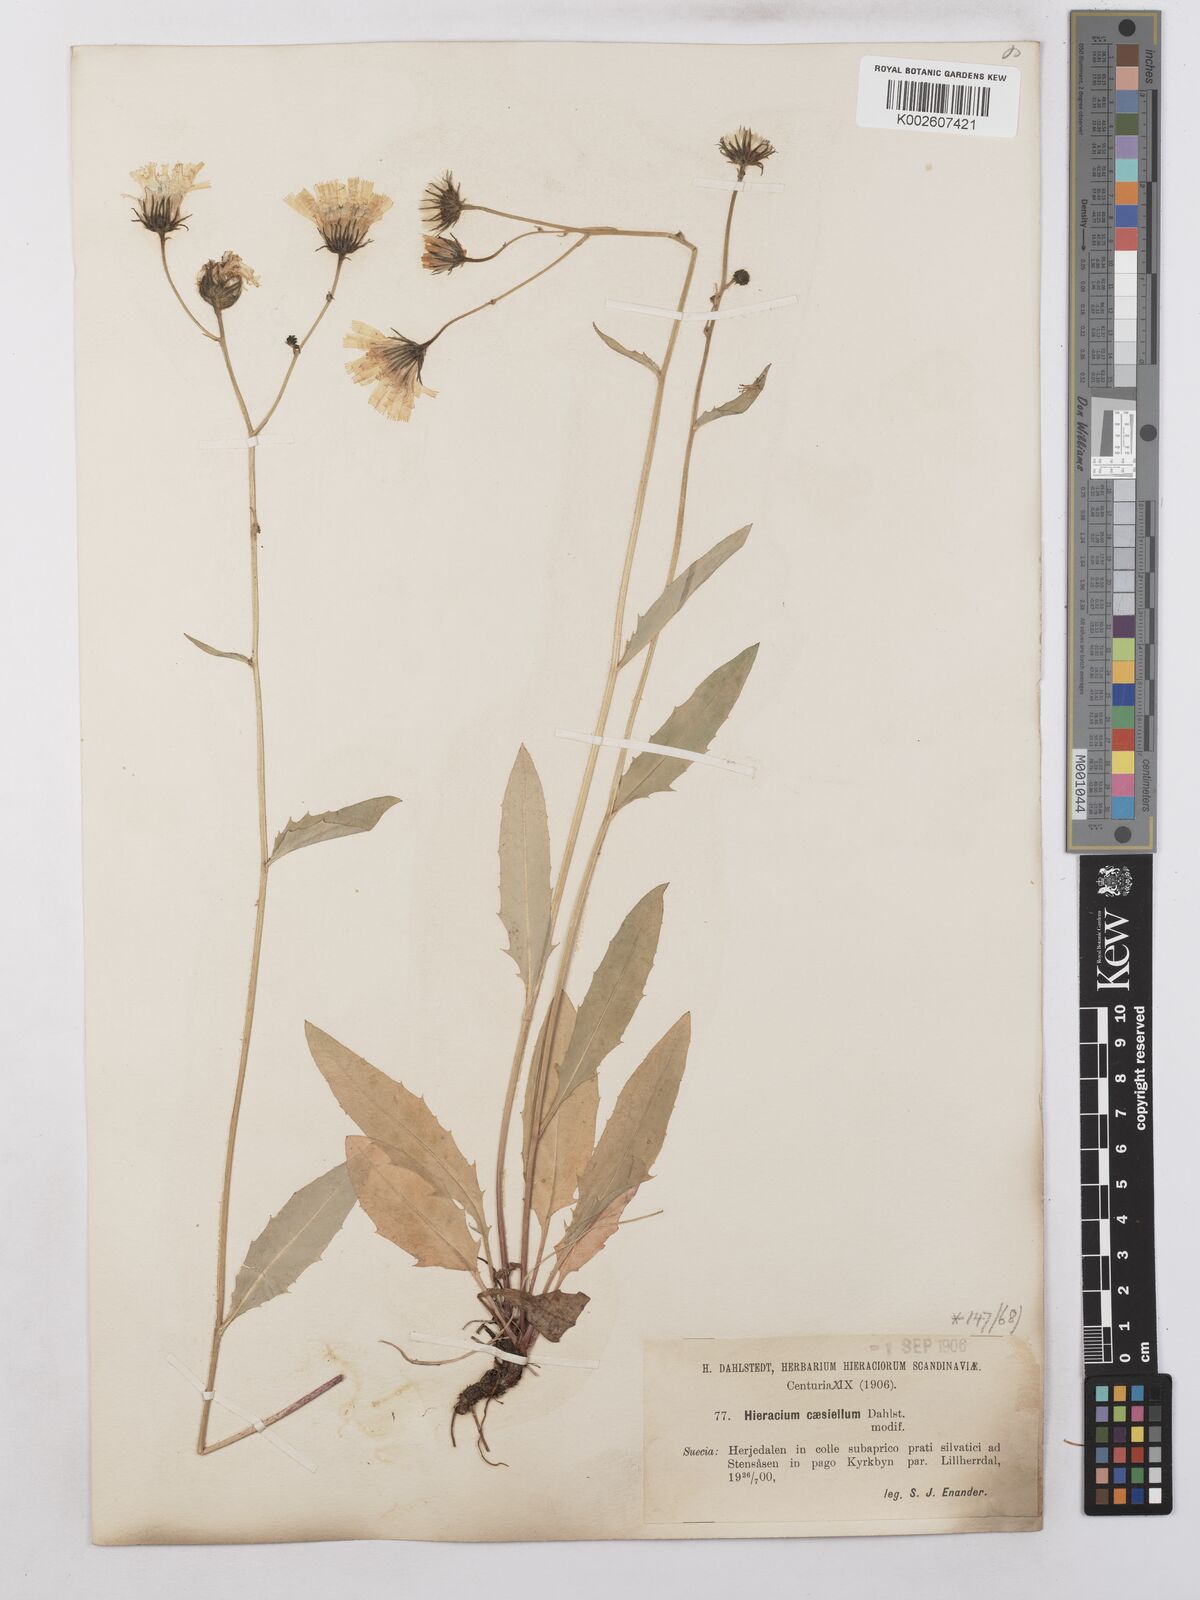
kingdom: Plantae
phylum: Tracheophyta
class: Magnoliopsida
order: Asterales
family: Asteraceae
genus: Hieracium
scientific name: Hieracium caesium
